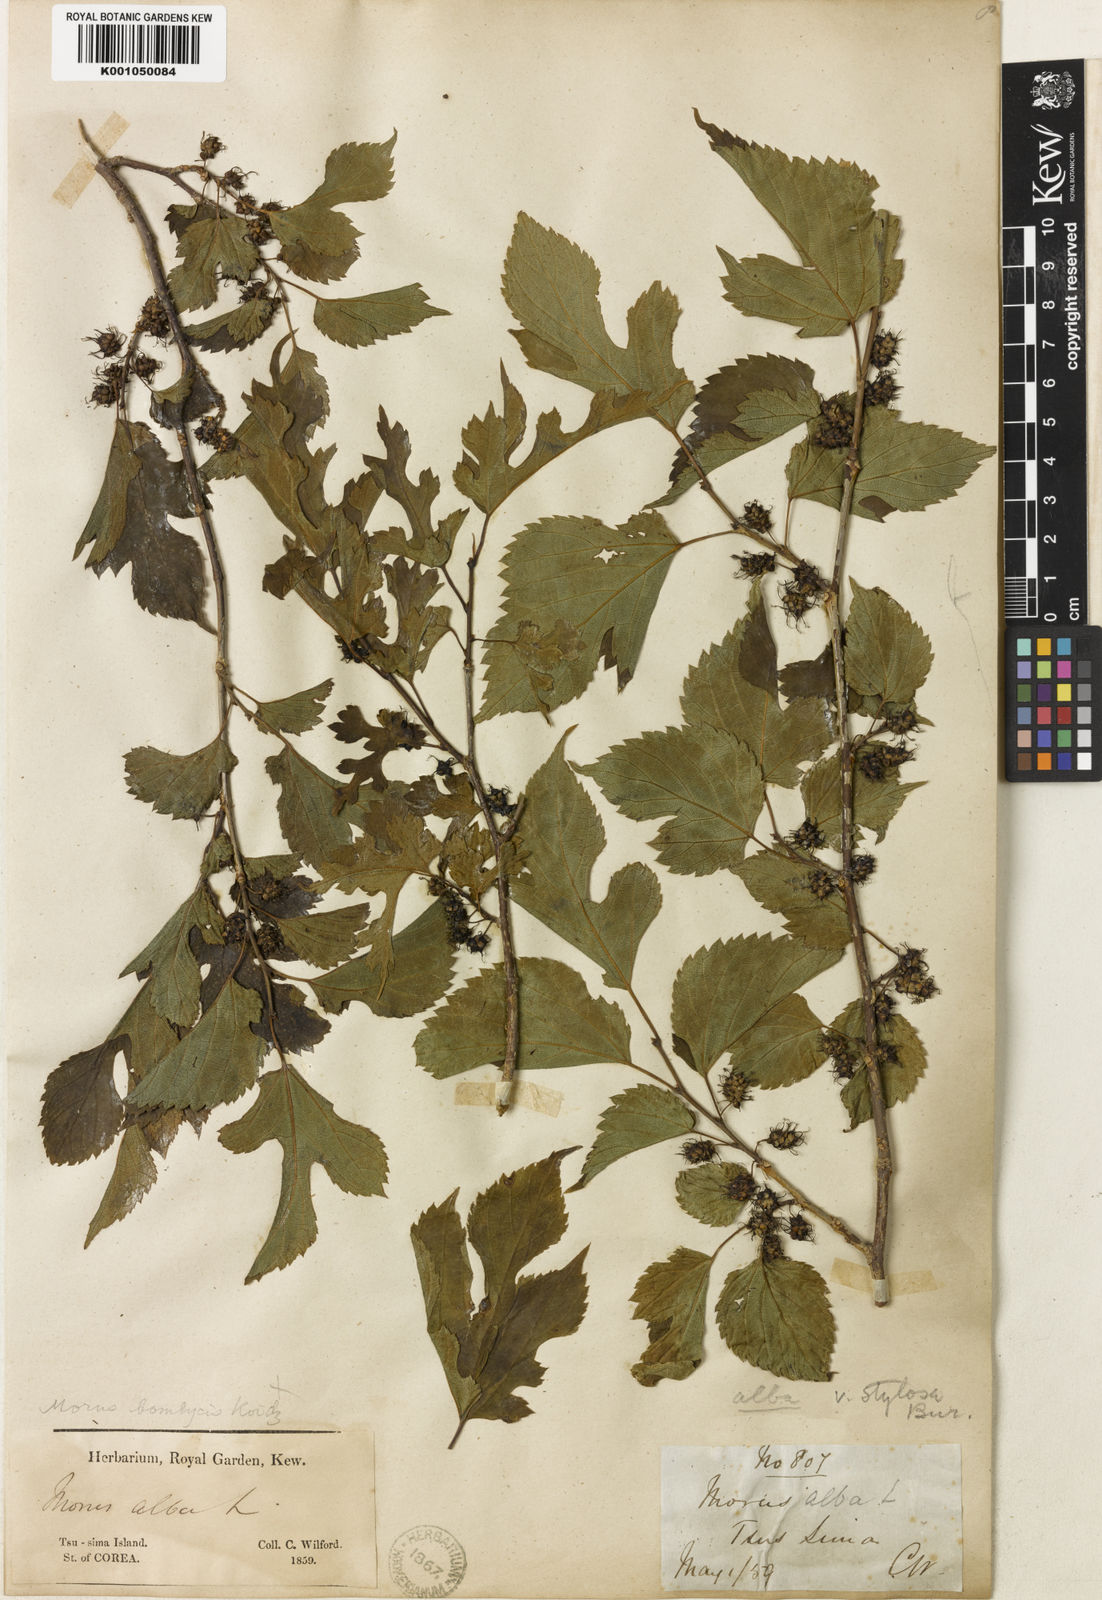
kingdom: Plantae
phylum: Tracheophyta
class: Magnoliopsida
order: Rosales
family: Moraceae
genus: Morus
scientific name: Morus indica
